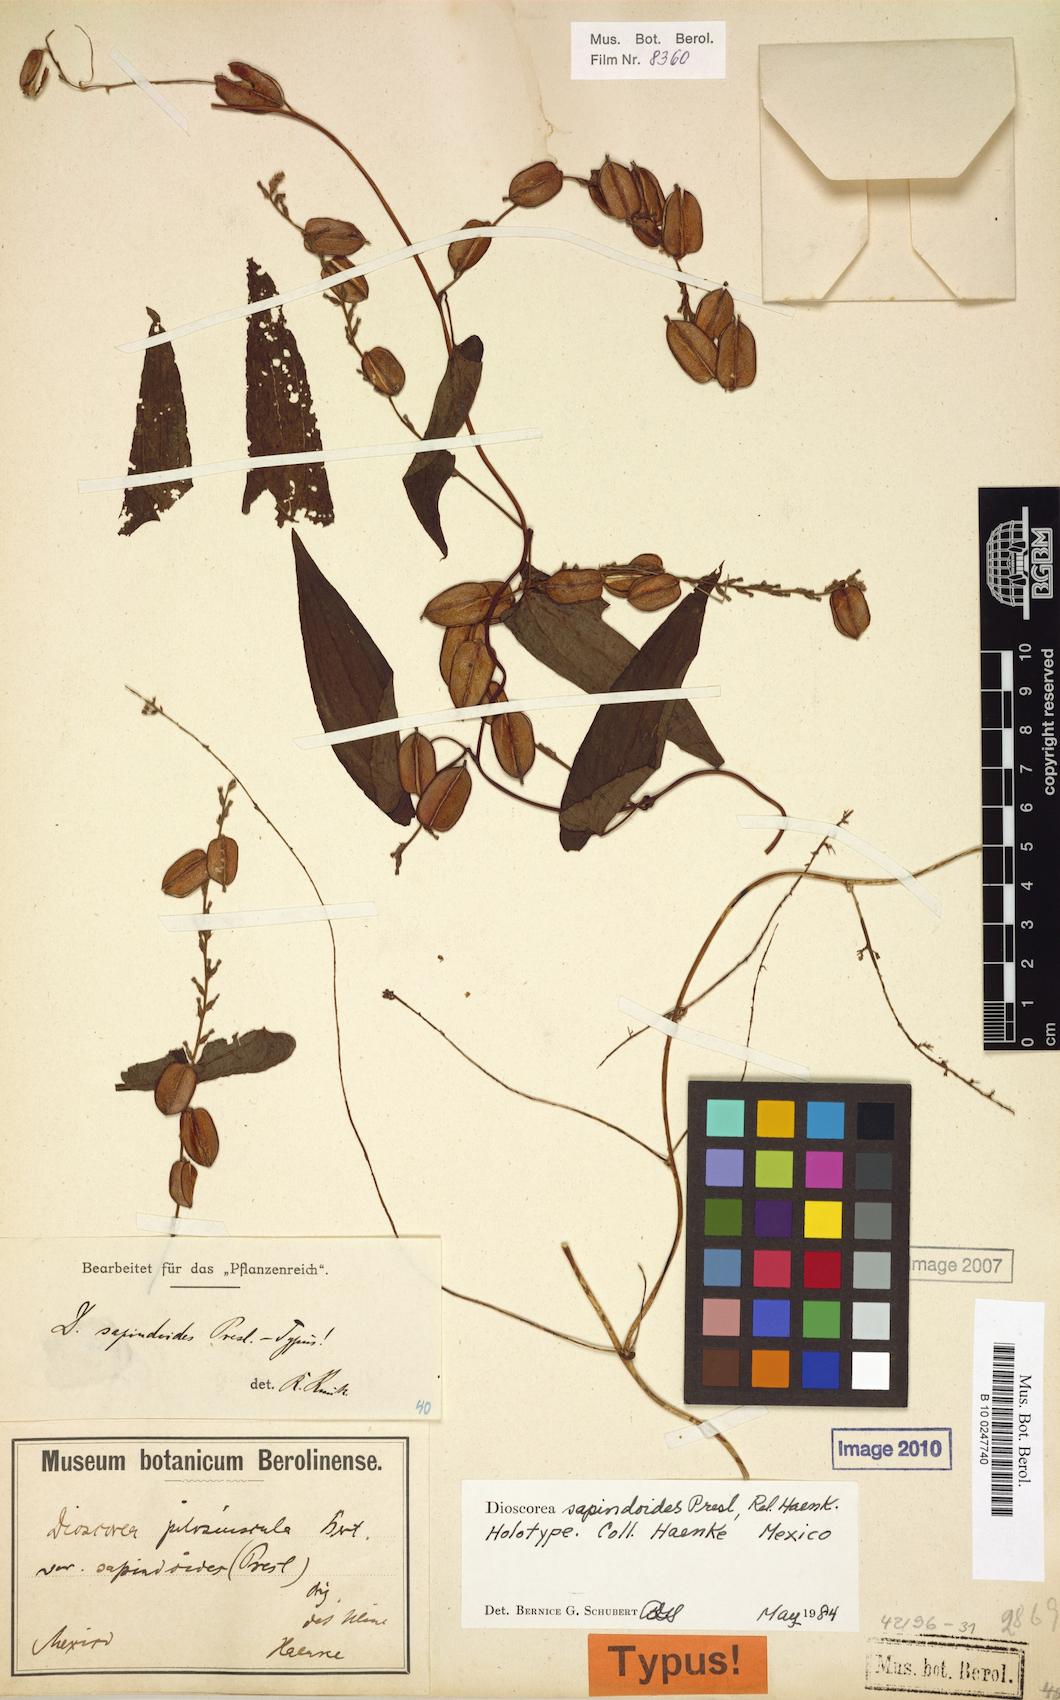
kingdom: Plantae
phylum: Tracheophyta
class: Liliopsida
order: Dioscoreales
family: Dioscoreaceae
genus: Dioscorea
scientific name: Dioscorea pilosiuscula
